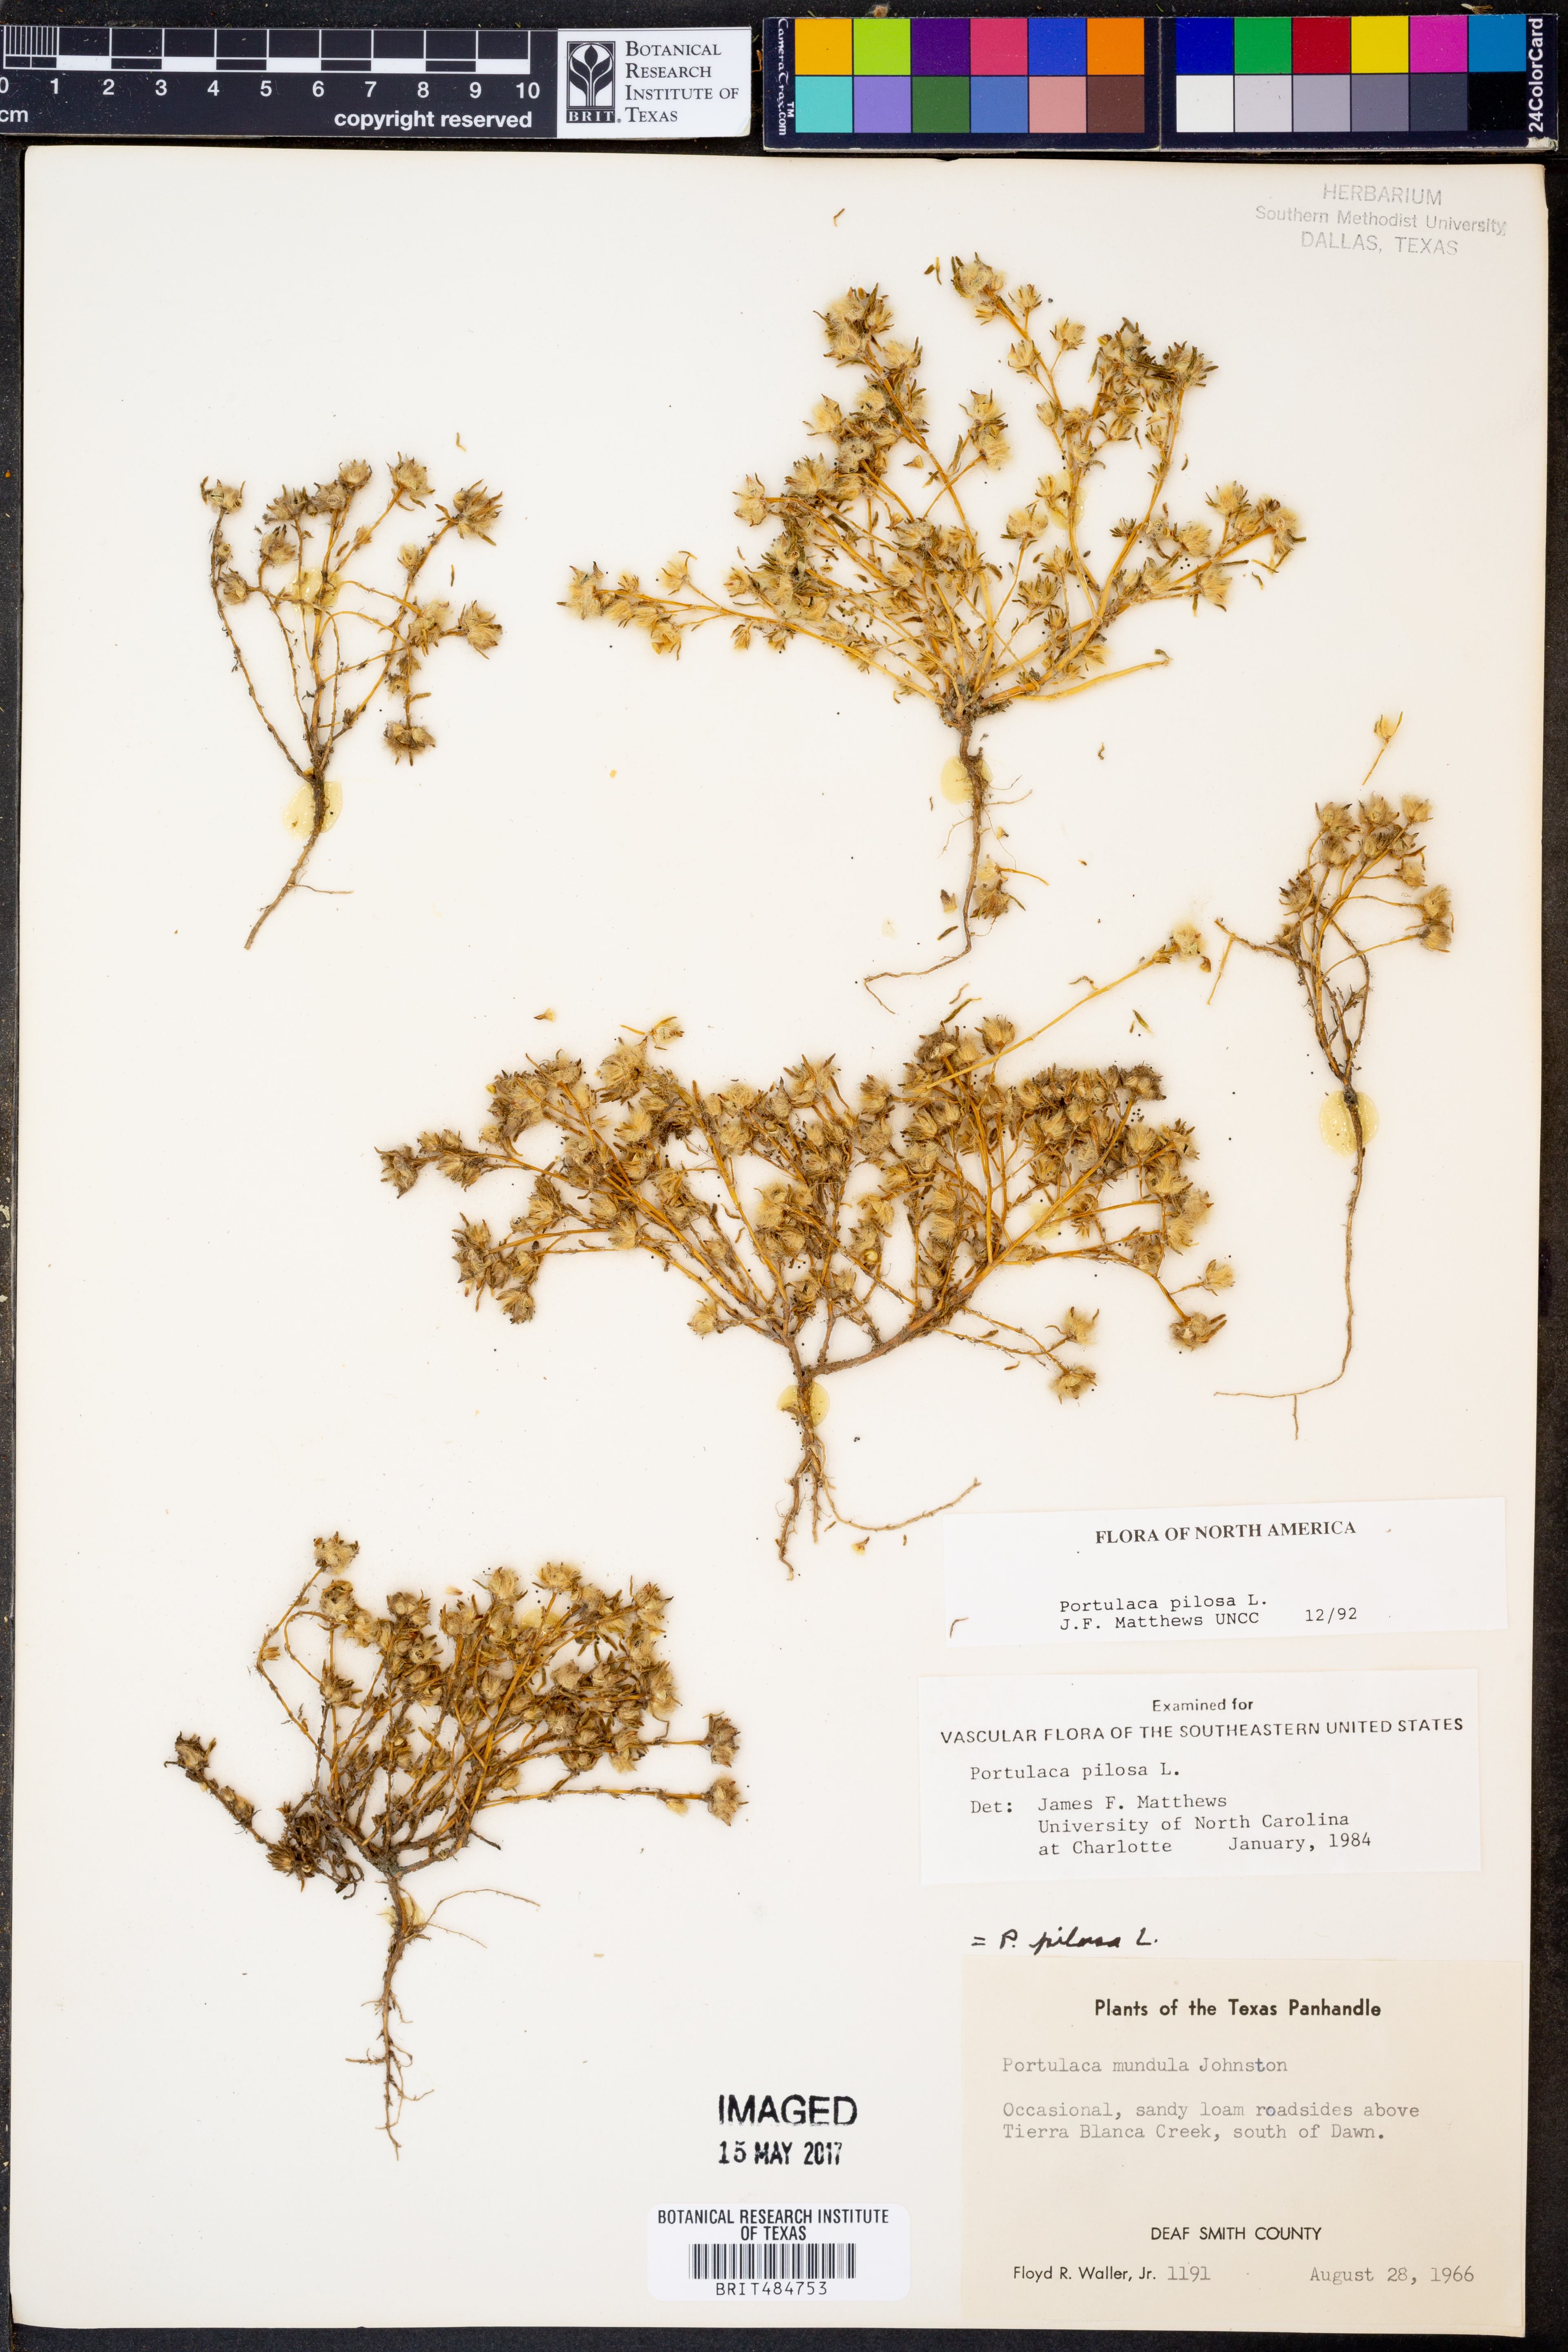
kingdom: Plantae
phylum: Tracheophyta
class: Magnoliopsida
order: Caryophyllales
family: Portulacaceae
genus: Portulaca
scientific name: Portulaca pilosa
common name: Kiss me quick
